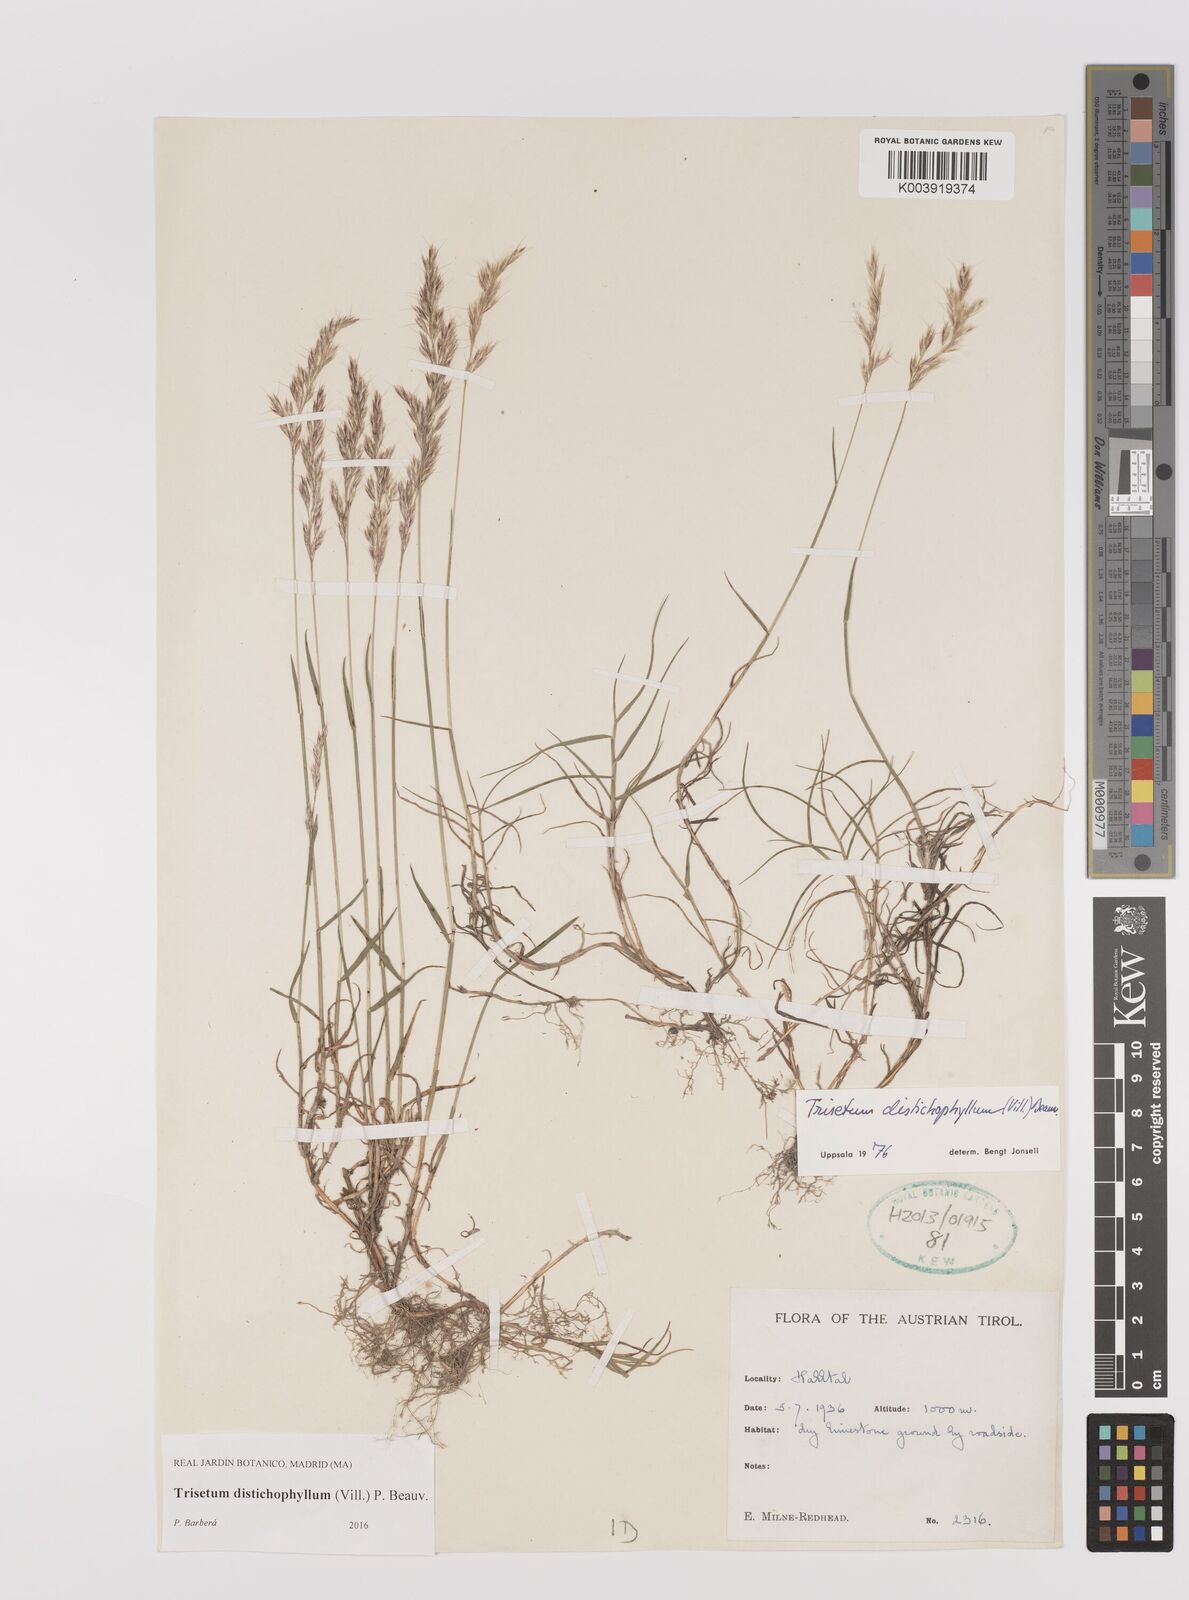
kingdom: Plantae
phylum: Tracheophyta
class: Liliopsida
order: Poales
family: Poaceae
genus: Acrospelion
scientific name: Acrospelion distichophyllum
